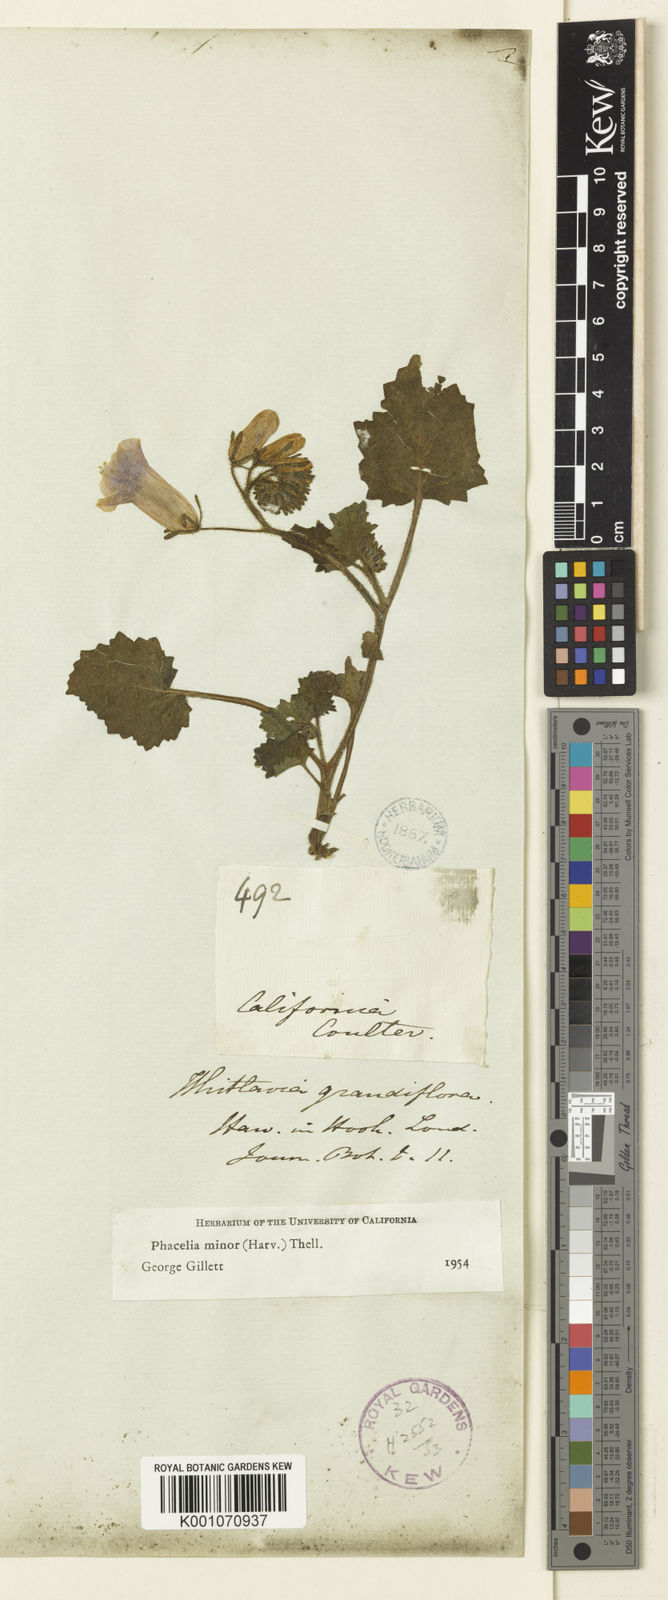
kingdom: Plantae
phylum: Tracheophyta
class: Magnoliopsida
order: Boraginales
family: Hydrophyllaceae
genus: Phacelia
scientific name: Phacelia
